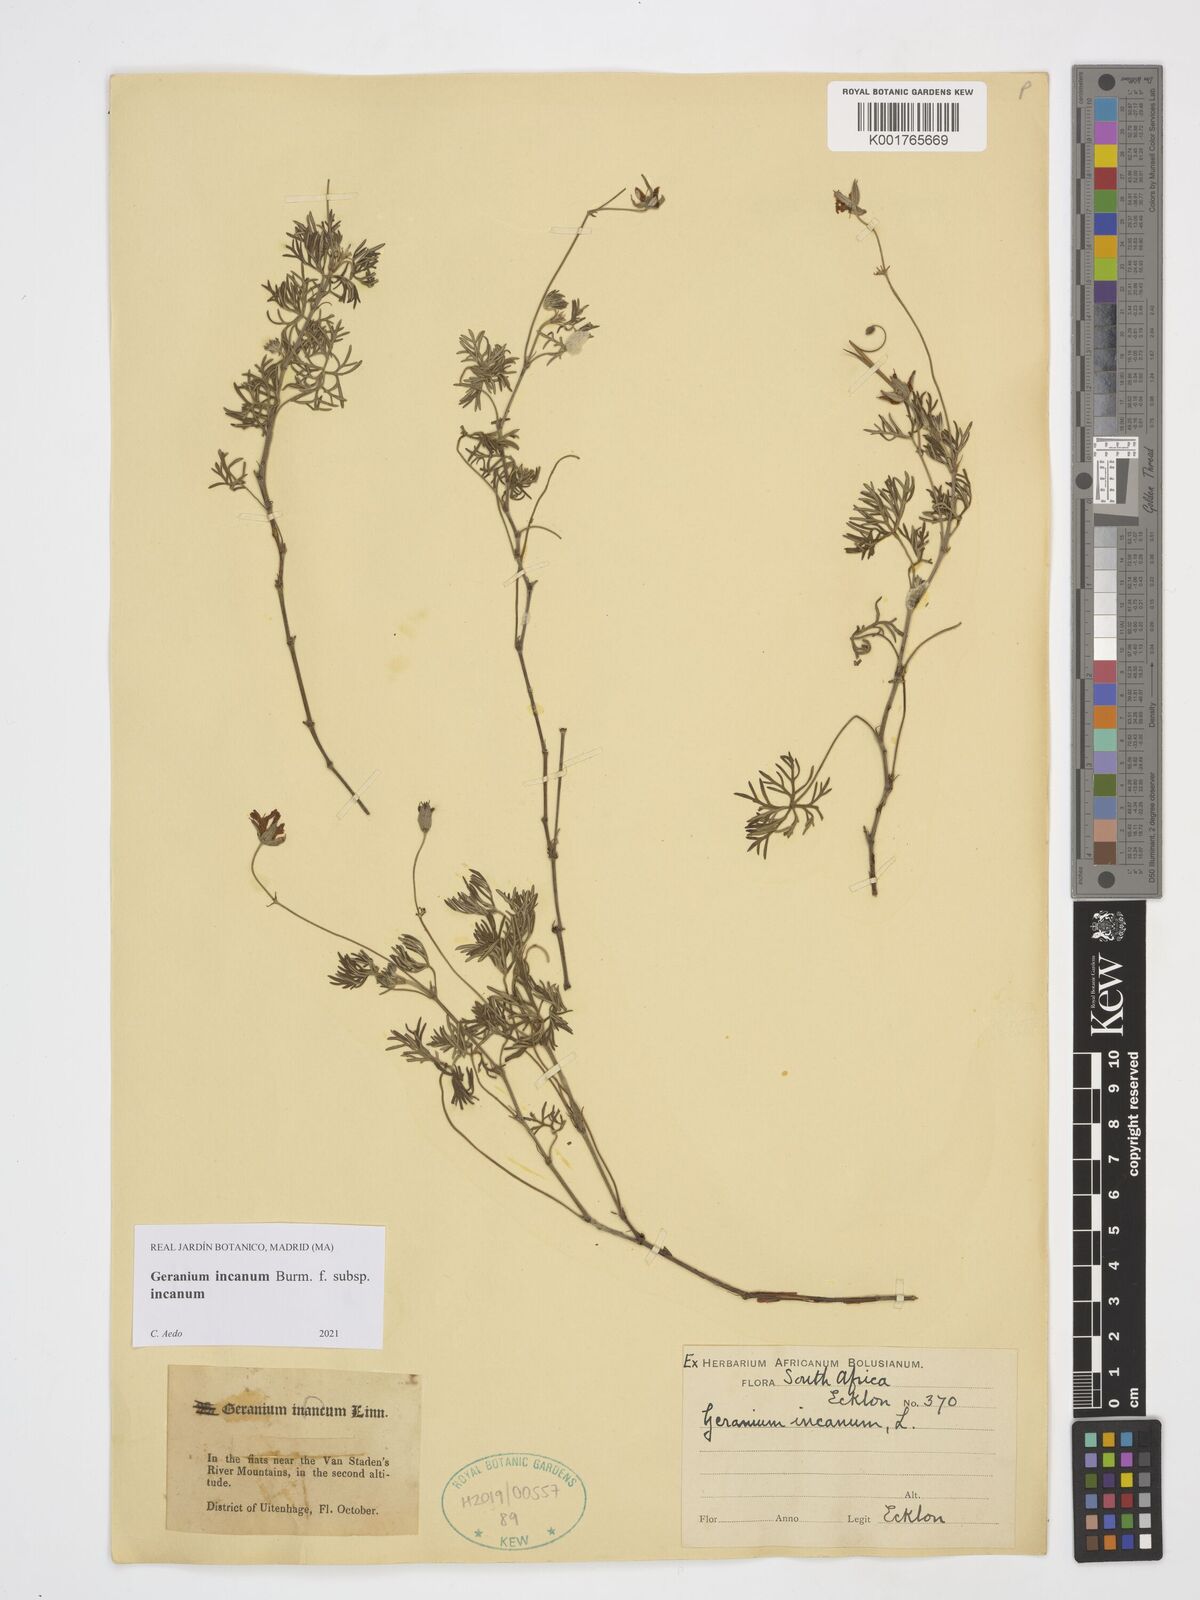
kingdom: Plantae
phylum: Tracheophyta
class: Magnoliopsida
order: Geraniales
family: Geraniaceae
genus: Geranium
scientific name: Geranium incanum
